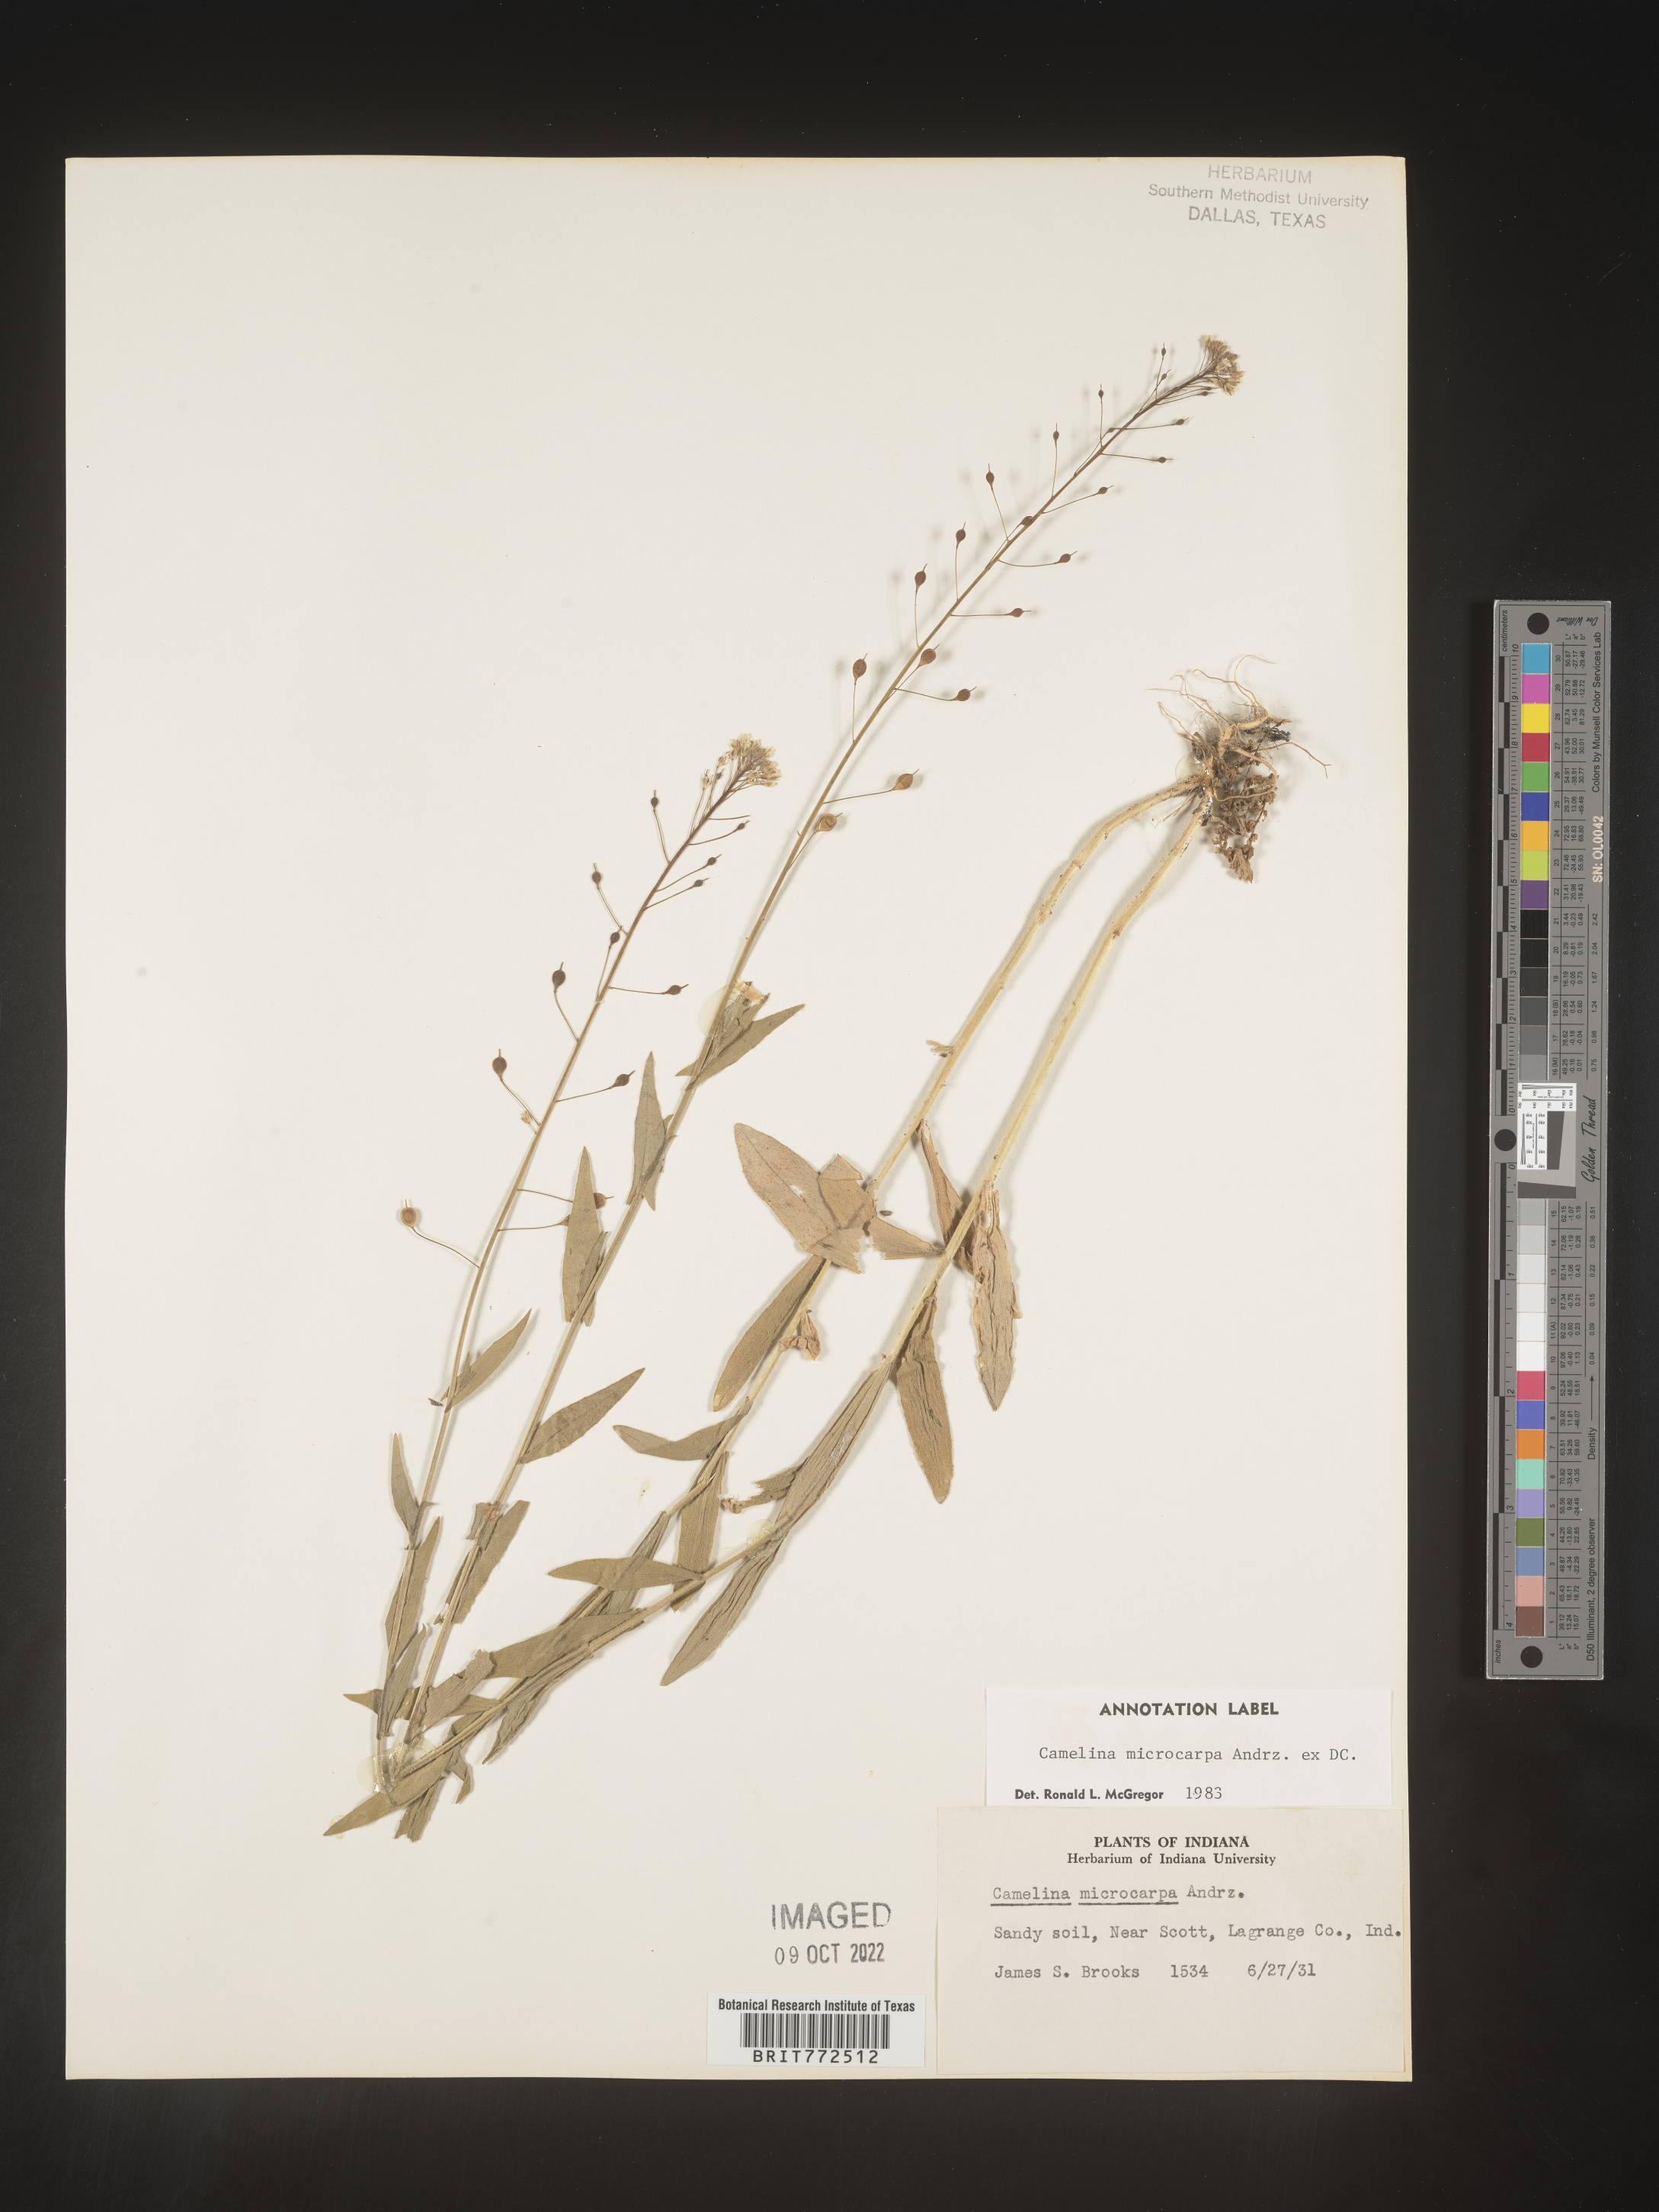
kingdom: Plantae
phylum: Tracheophyta
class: Magnoliopsida
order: Brassicales
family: Brassicaceae
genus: Camelina
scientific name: Camelina microcarpa
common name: Lesser gold-of-pleasure
